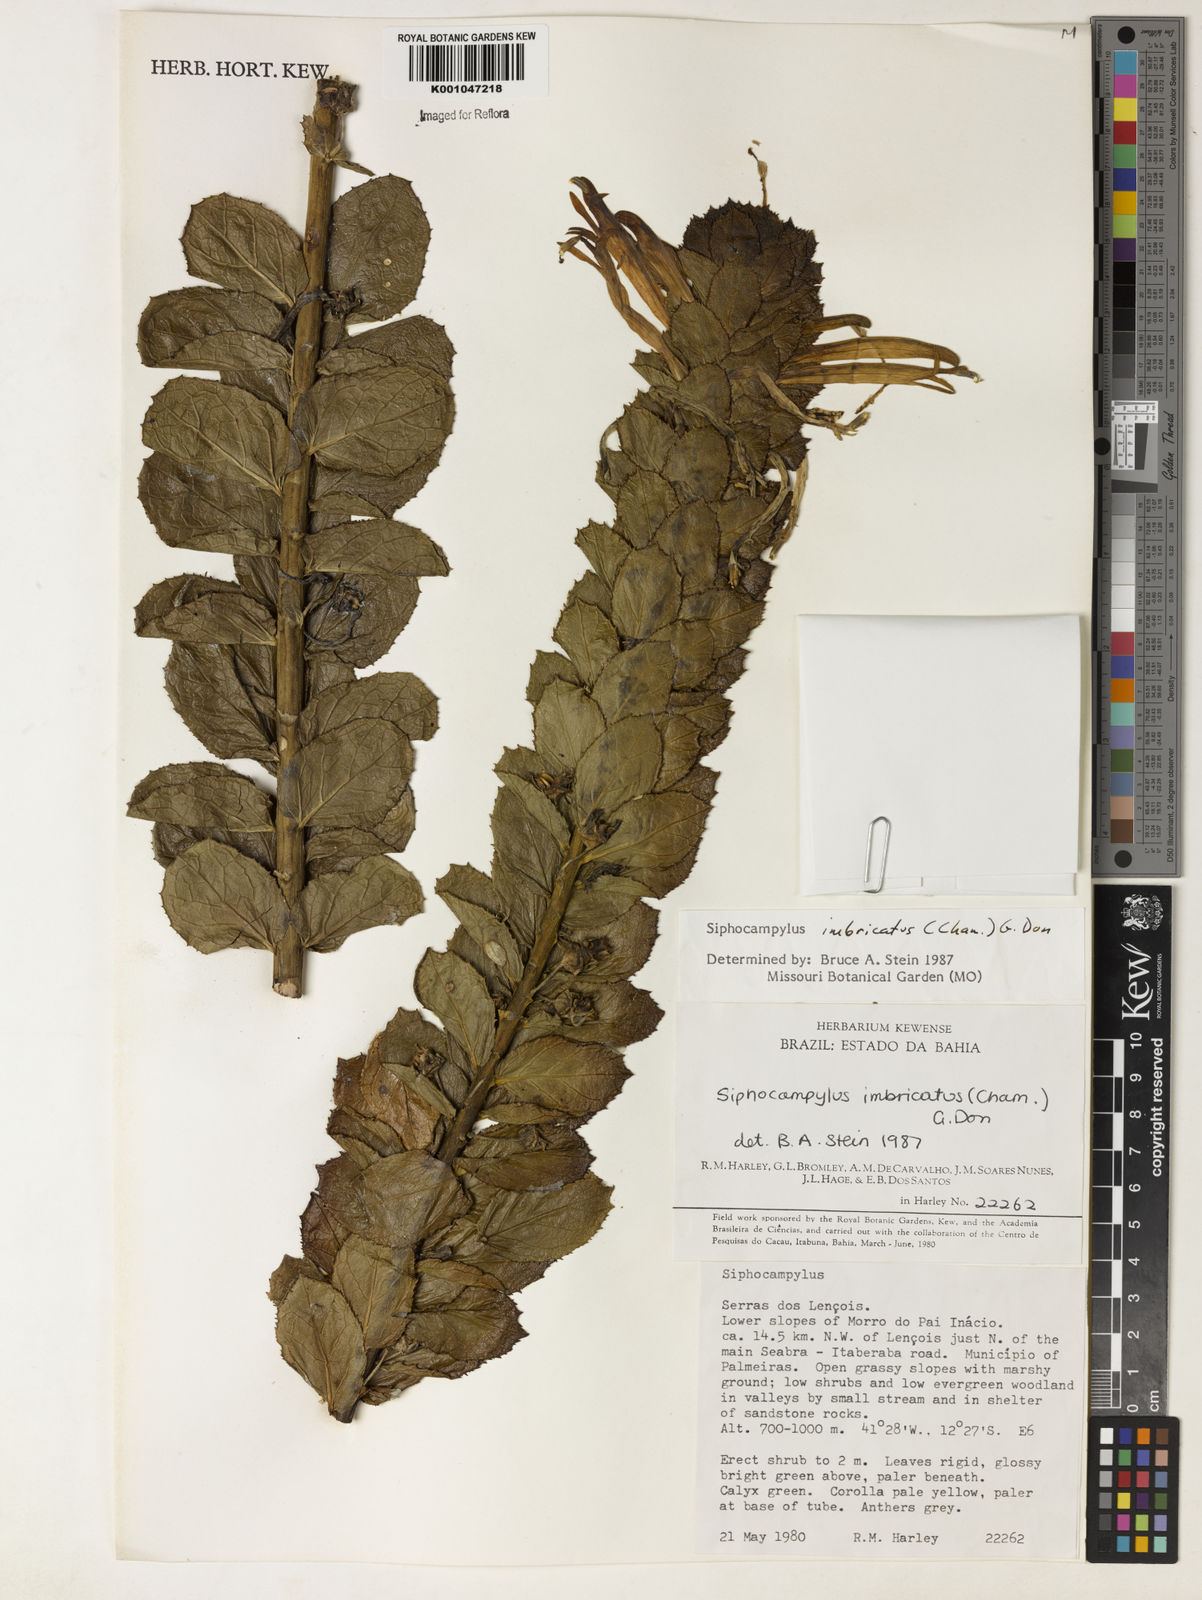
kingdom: Plantae
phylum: Tracheophyta
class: Magnoliopsida
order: Asterales
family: Campanulaceae
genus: Siphocampylus
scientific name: Siphocampylus imbricatus
